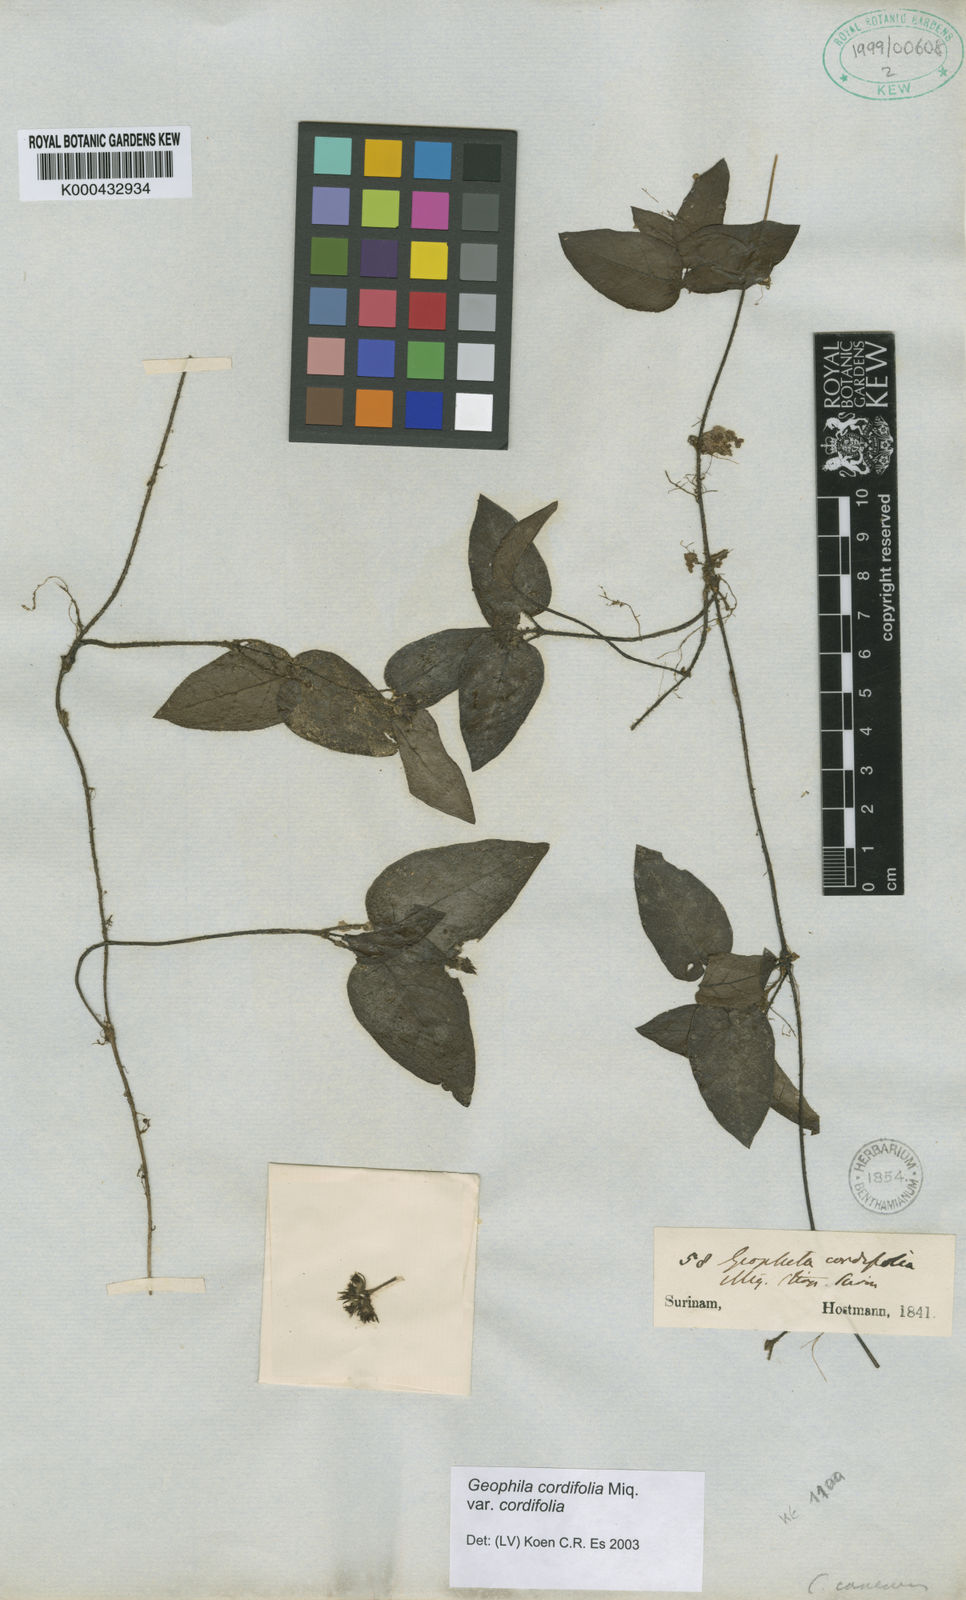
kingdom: Plantae
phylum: Tracheophyta
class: Magnoliopsida
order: Gentianales
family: Rubiaceae
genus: Geophila
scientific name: Geophila cordifolia
